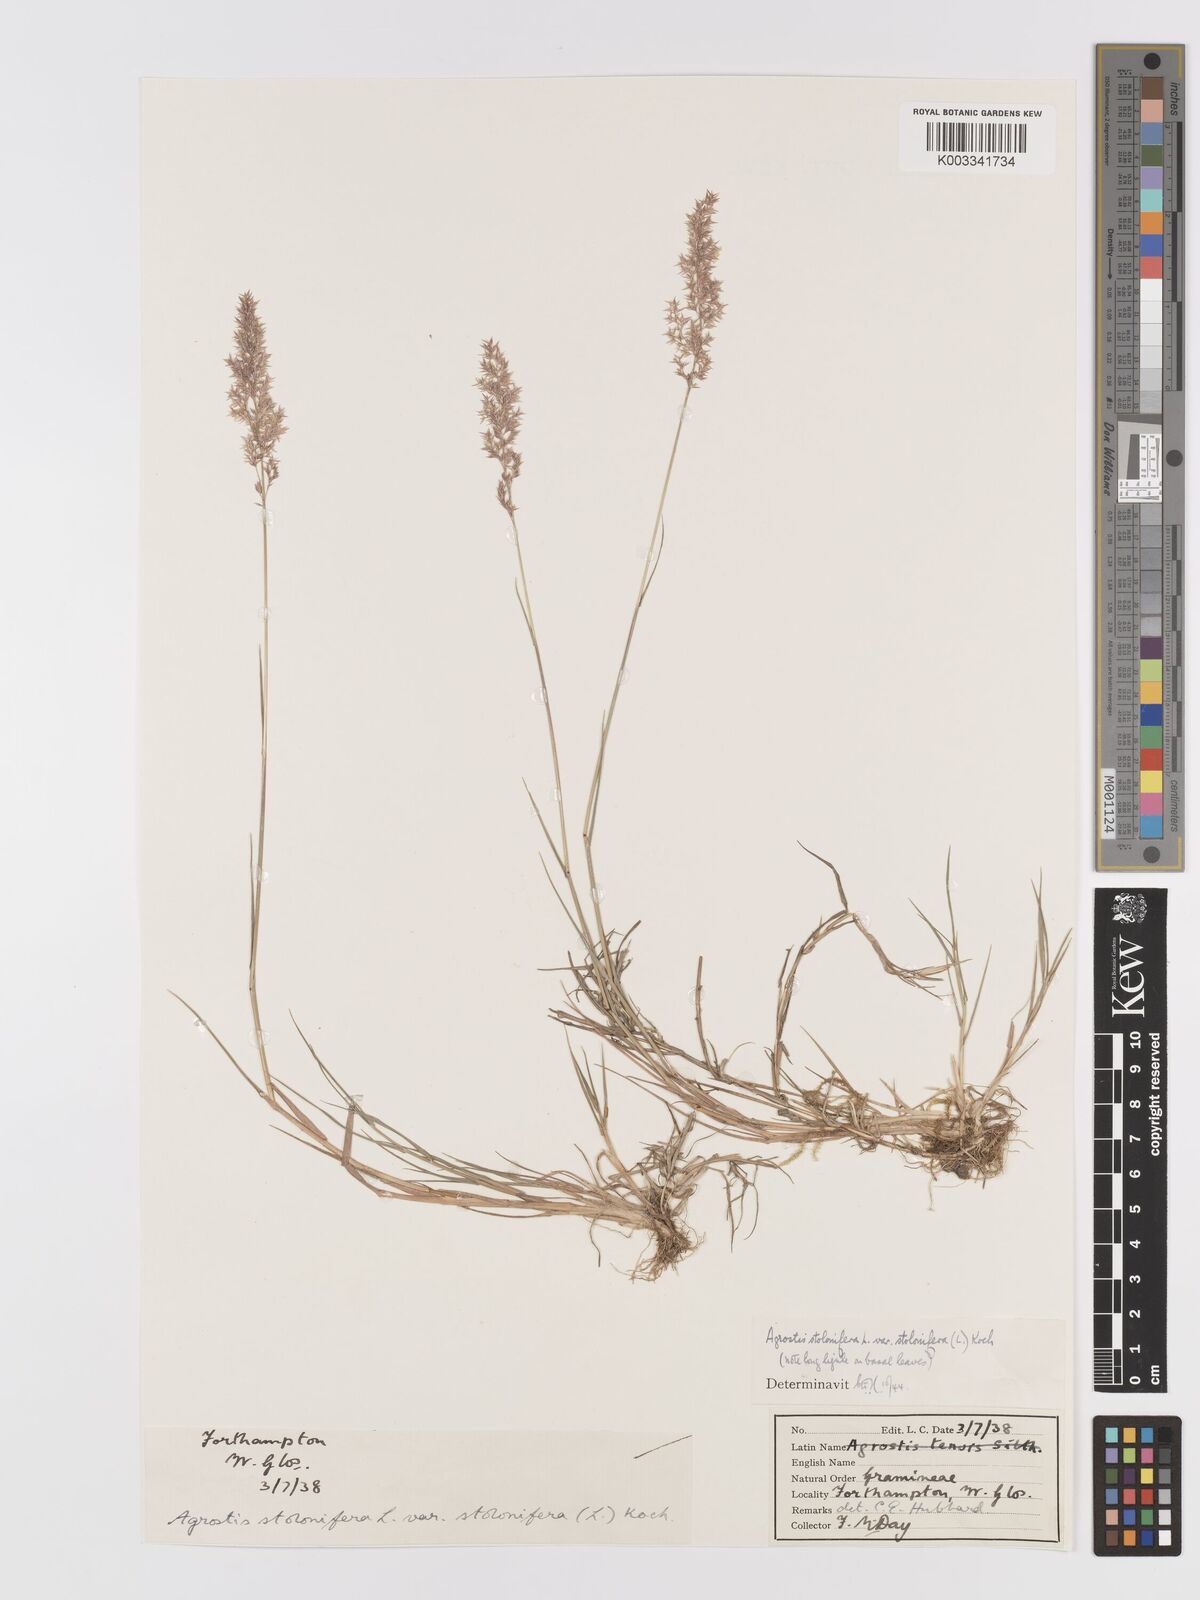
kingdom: Plantae
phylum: Tracheophyta
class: Liliopsida
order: Poales
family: Poaceae
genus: Agrostis
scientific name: Agrostis stolonifera
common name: Creeping bentgrass
